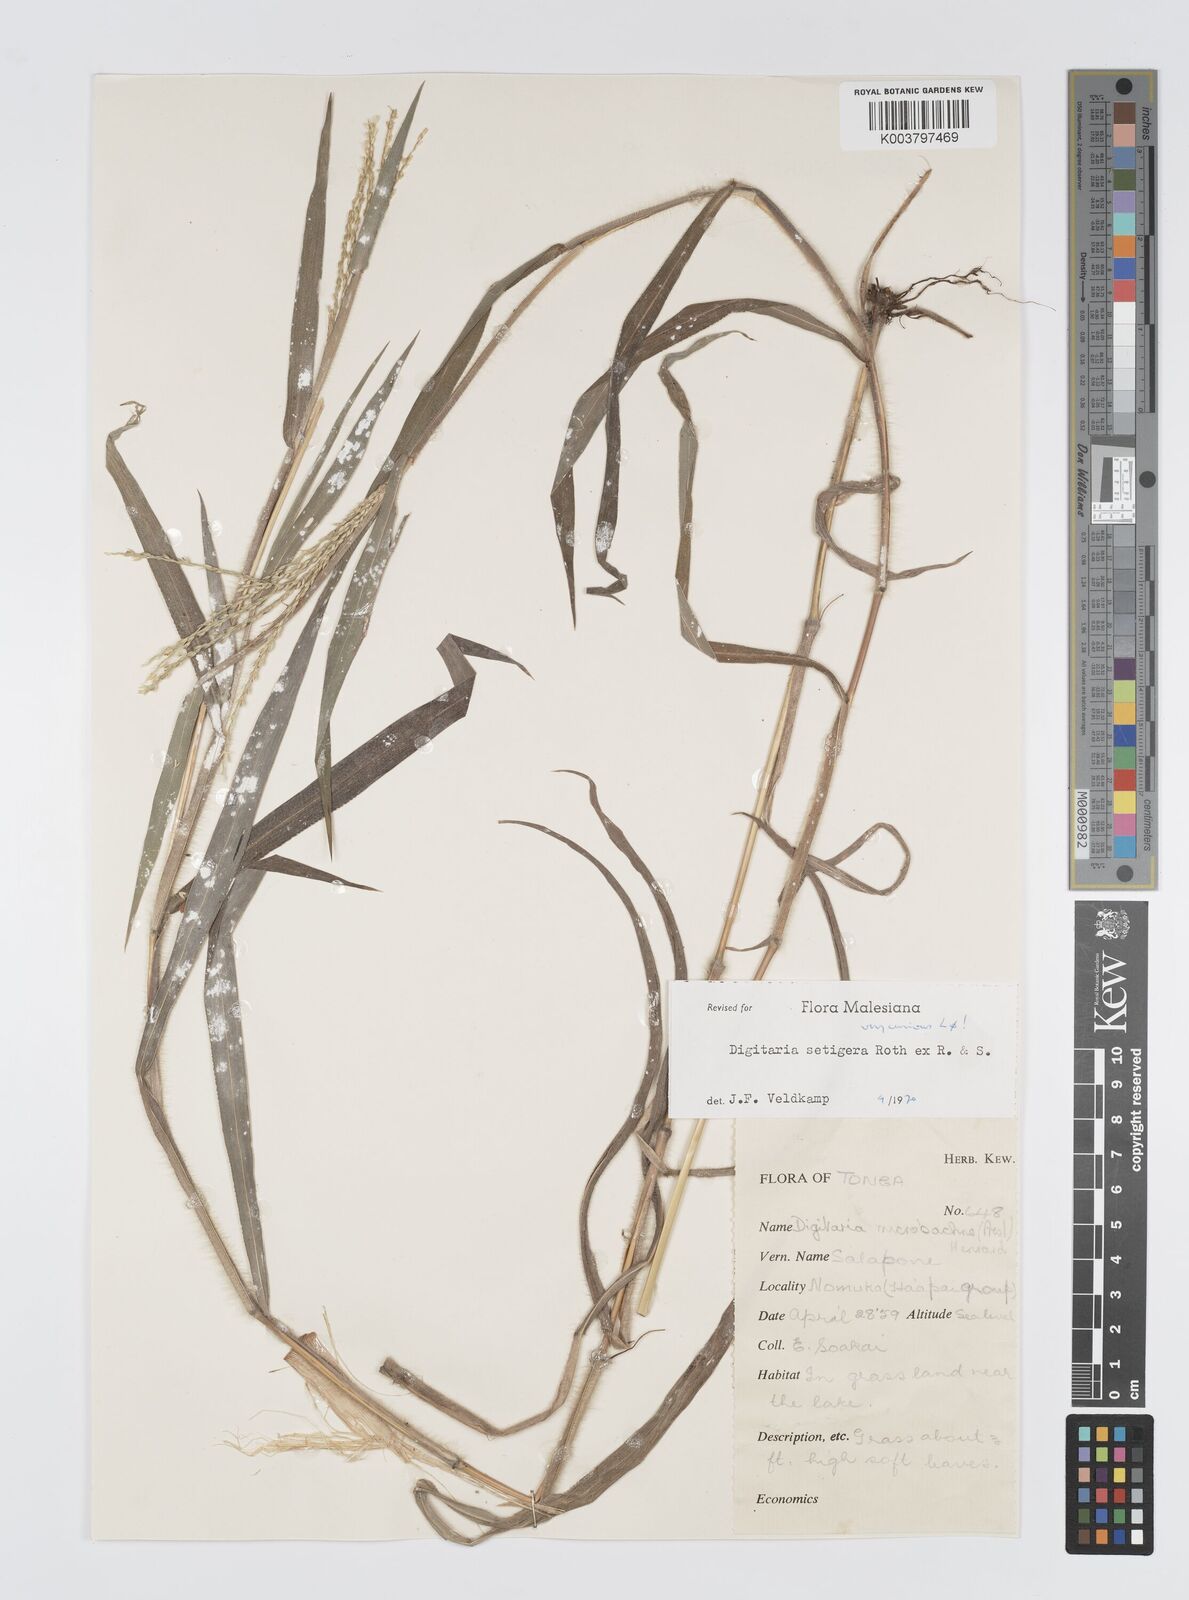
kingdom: Plantae
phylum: Tracheophyta
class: Liliopsida
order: Poales
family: Poaceae
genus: Digitaria
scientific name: Digitaria setigera
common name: East indian crabgrass
